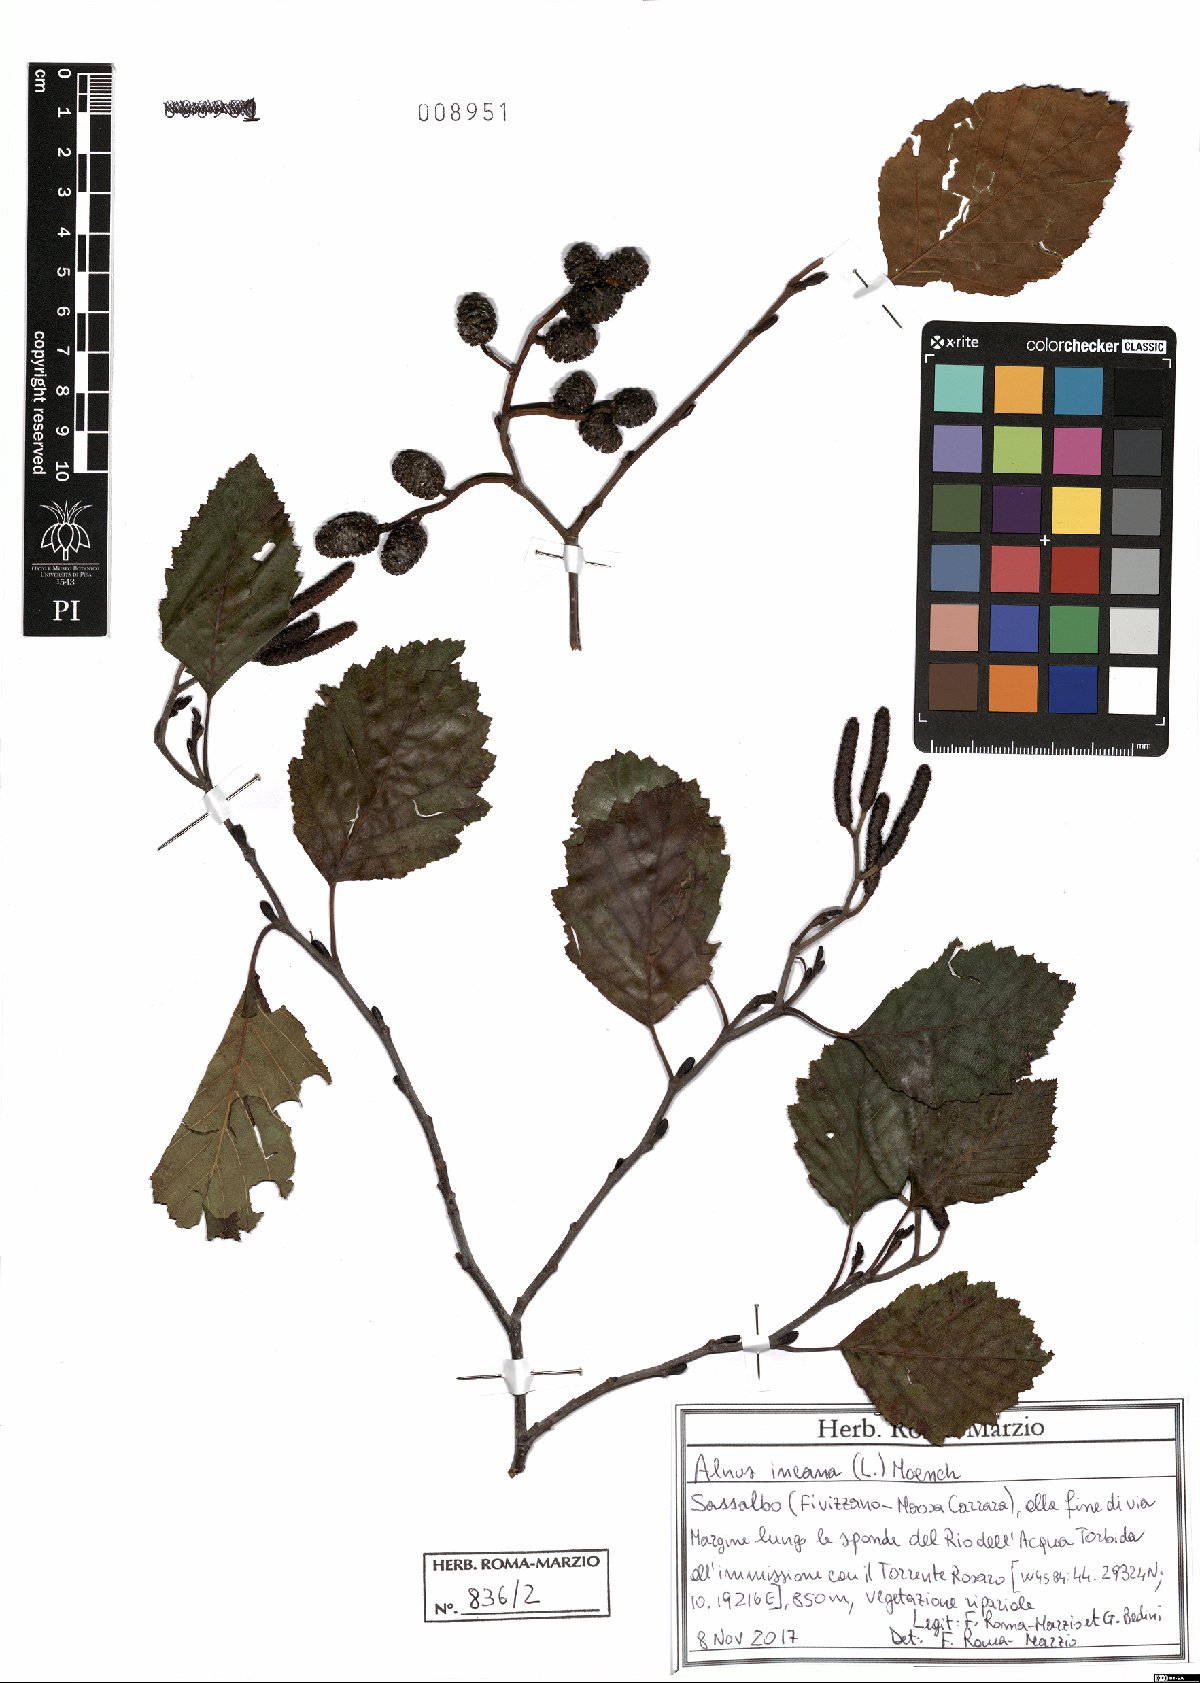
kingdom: Plantae
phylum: Tracheophyta
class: Magnoliopsida
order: Fagales
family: Betulaceae
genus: Alnus
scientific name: Alnus incana
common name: Grey alder
